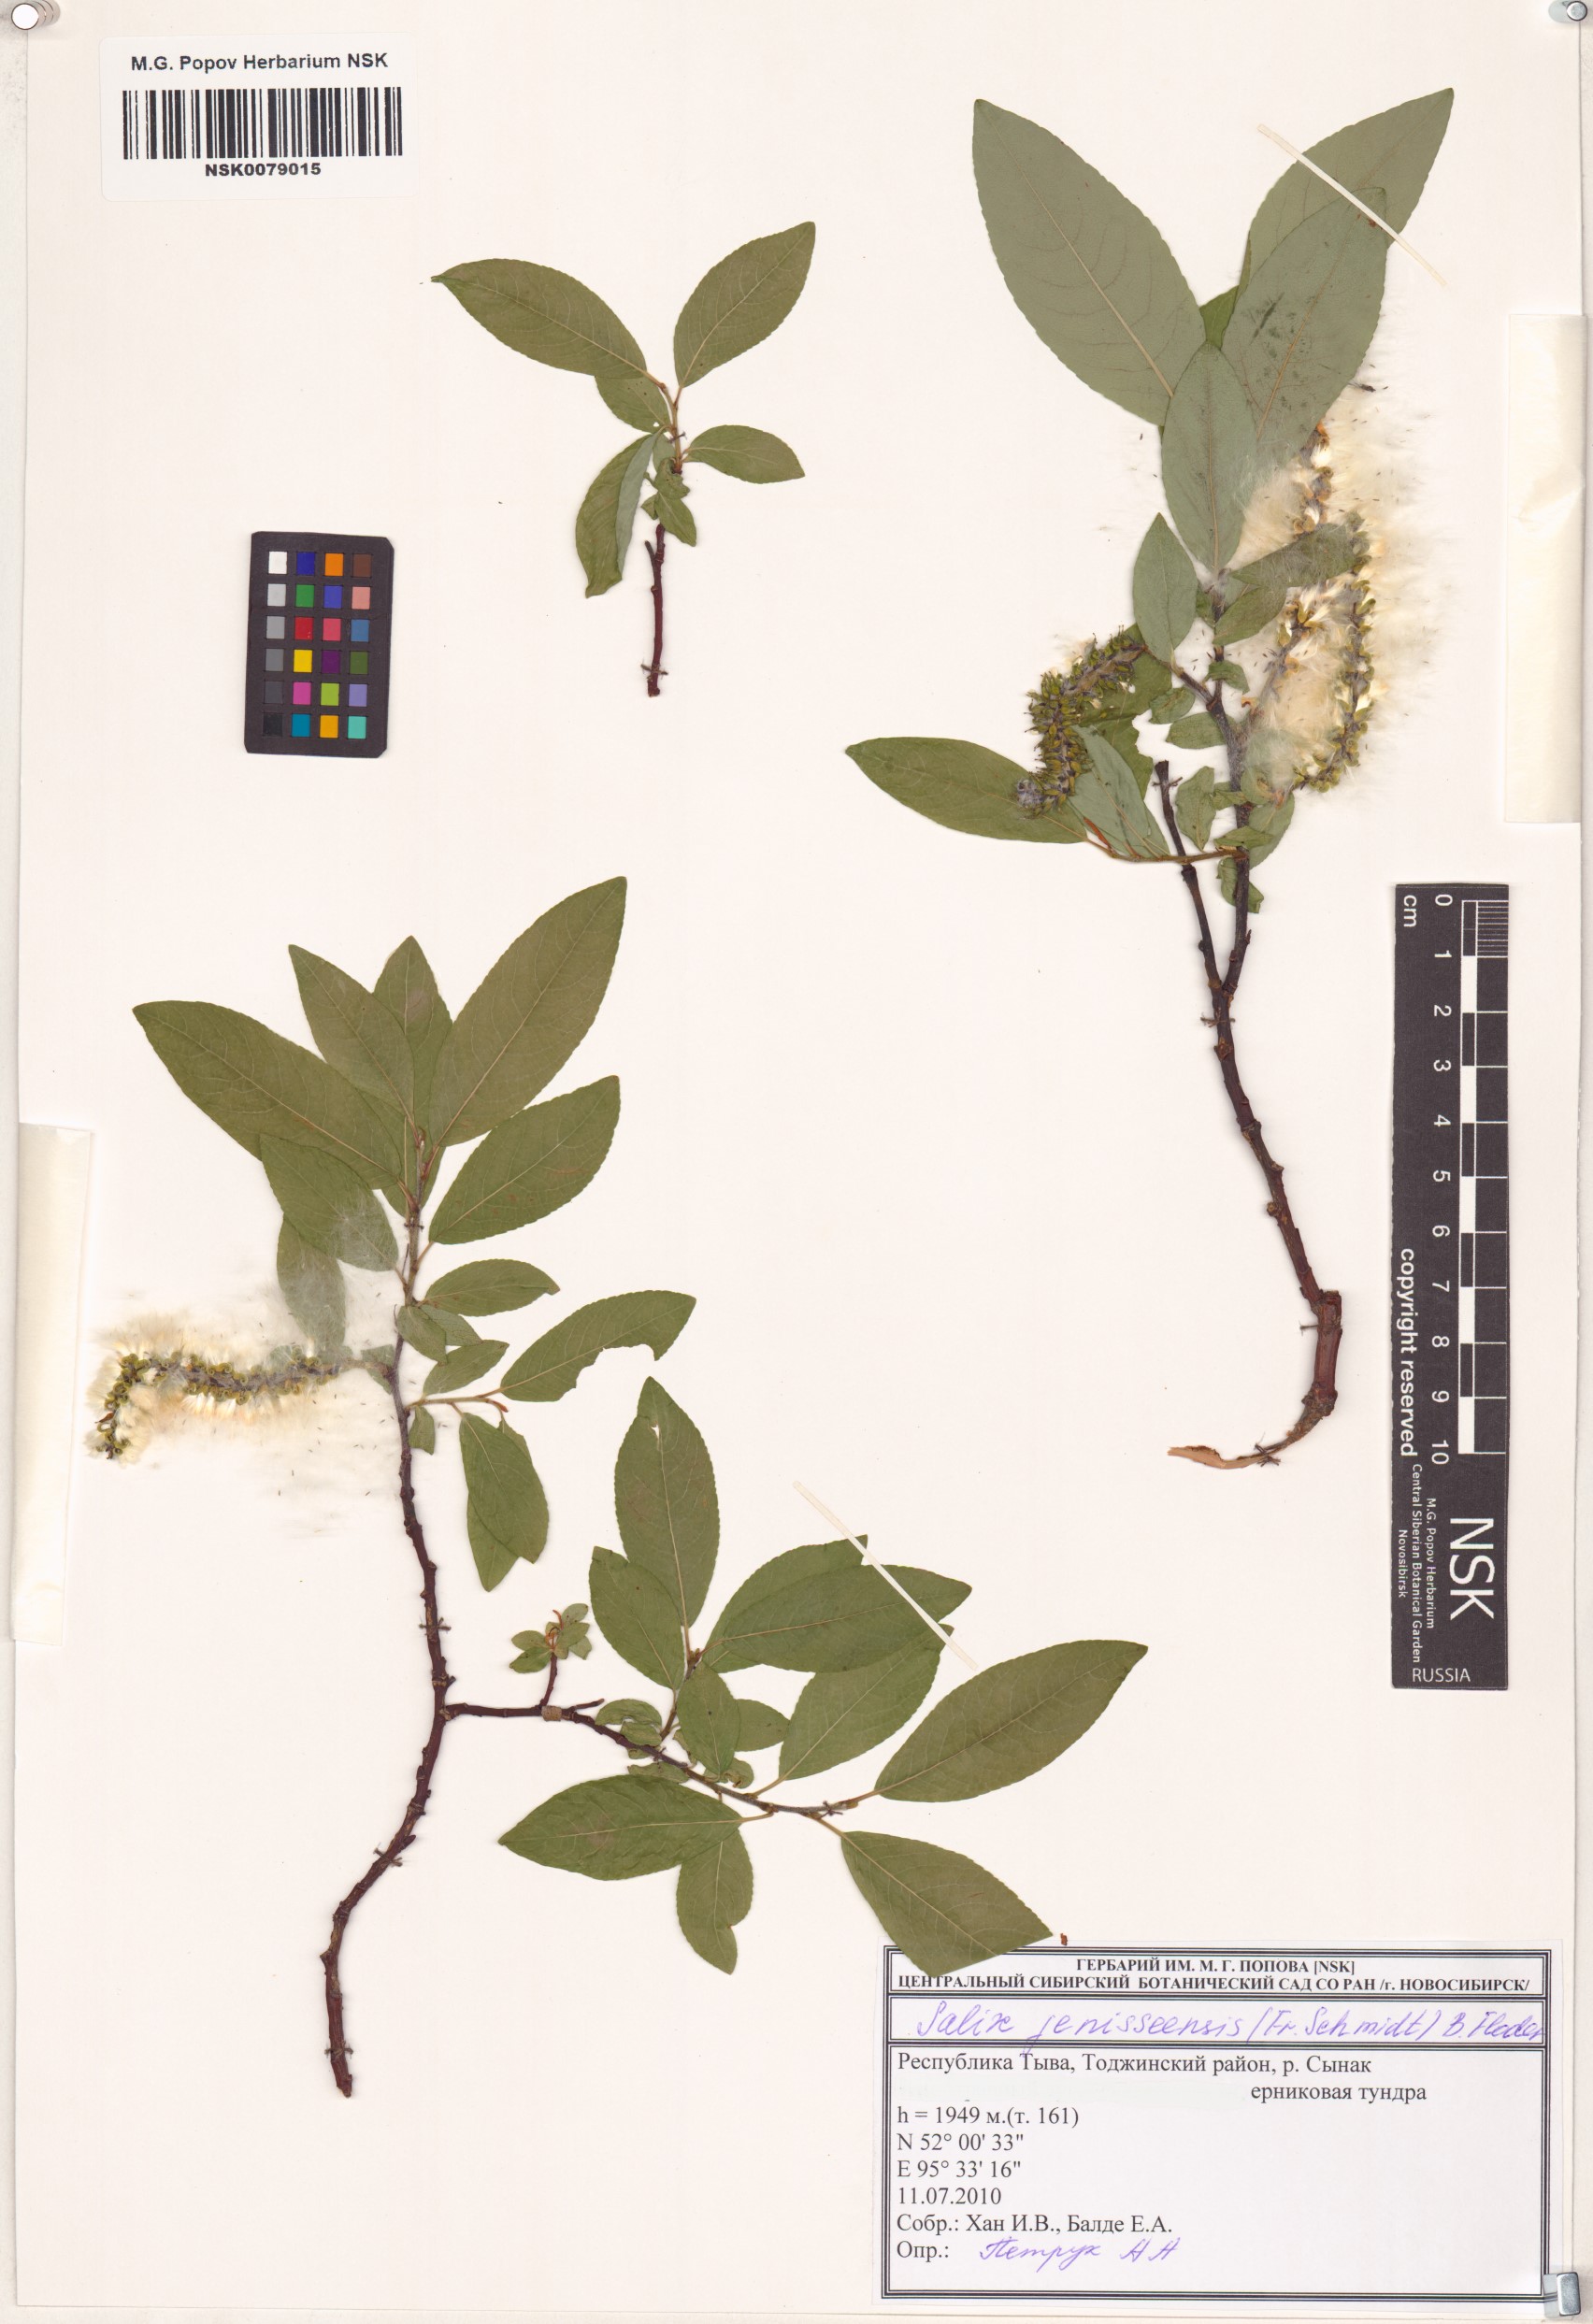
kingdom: Plantae
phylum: Tracheophyta
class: Magnoliopsida
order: Malpighiales
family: Salicaceae
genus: Salix
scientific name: Salix jenisseensis
